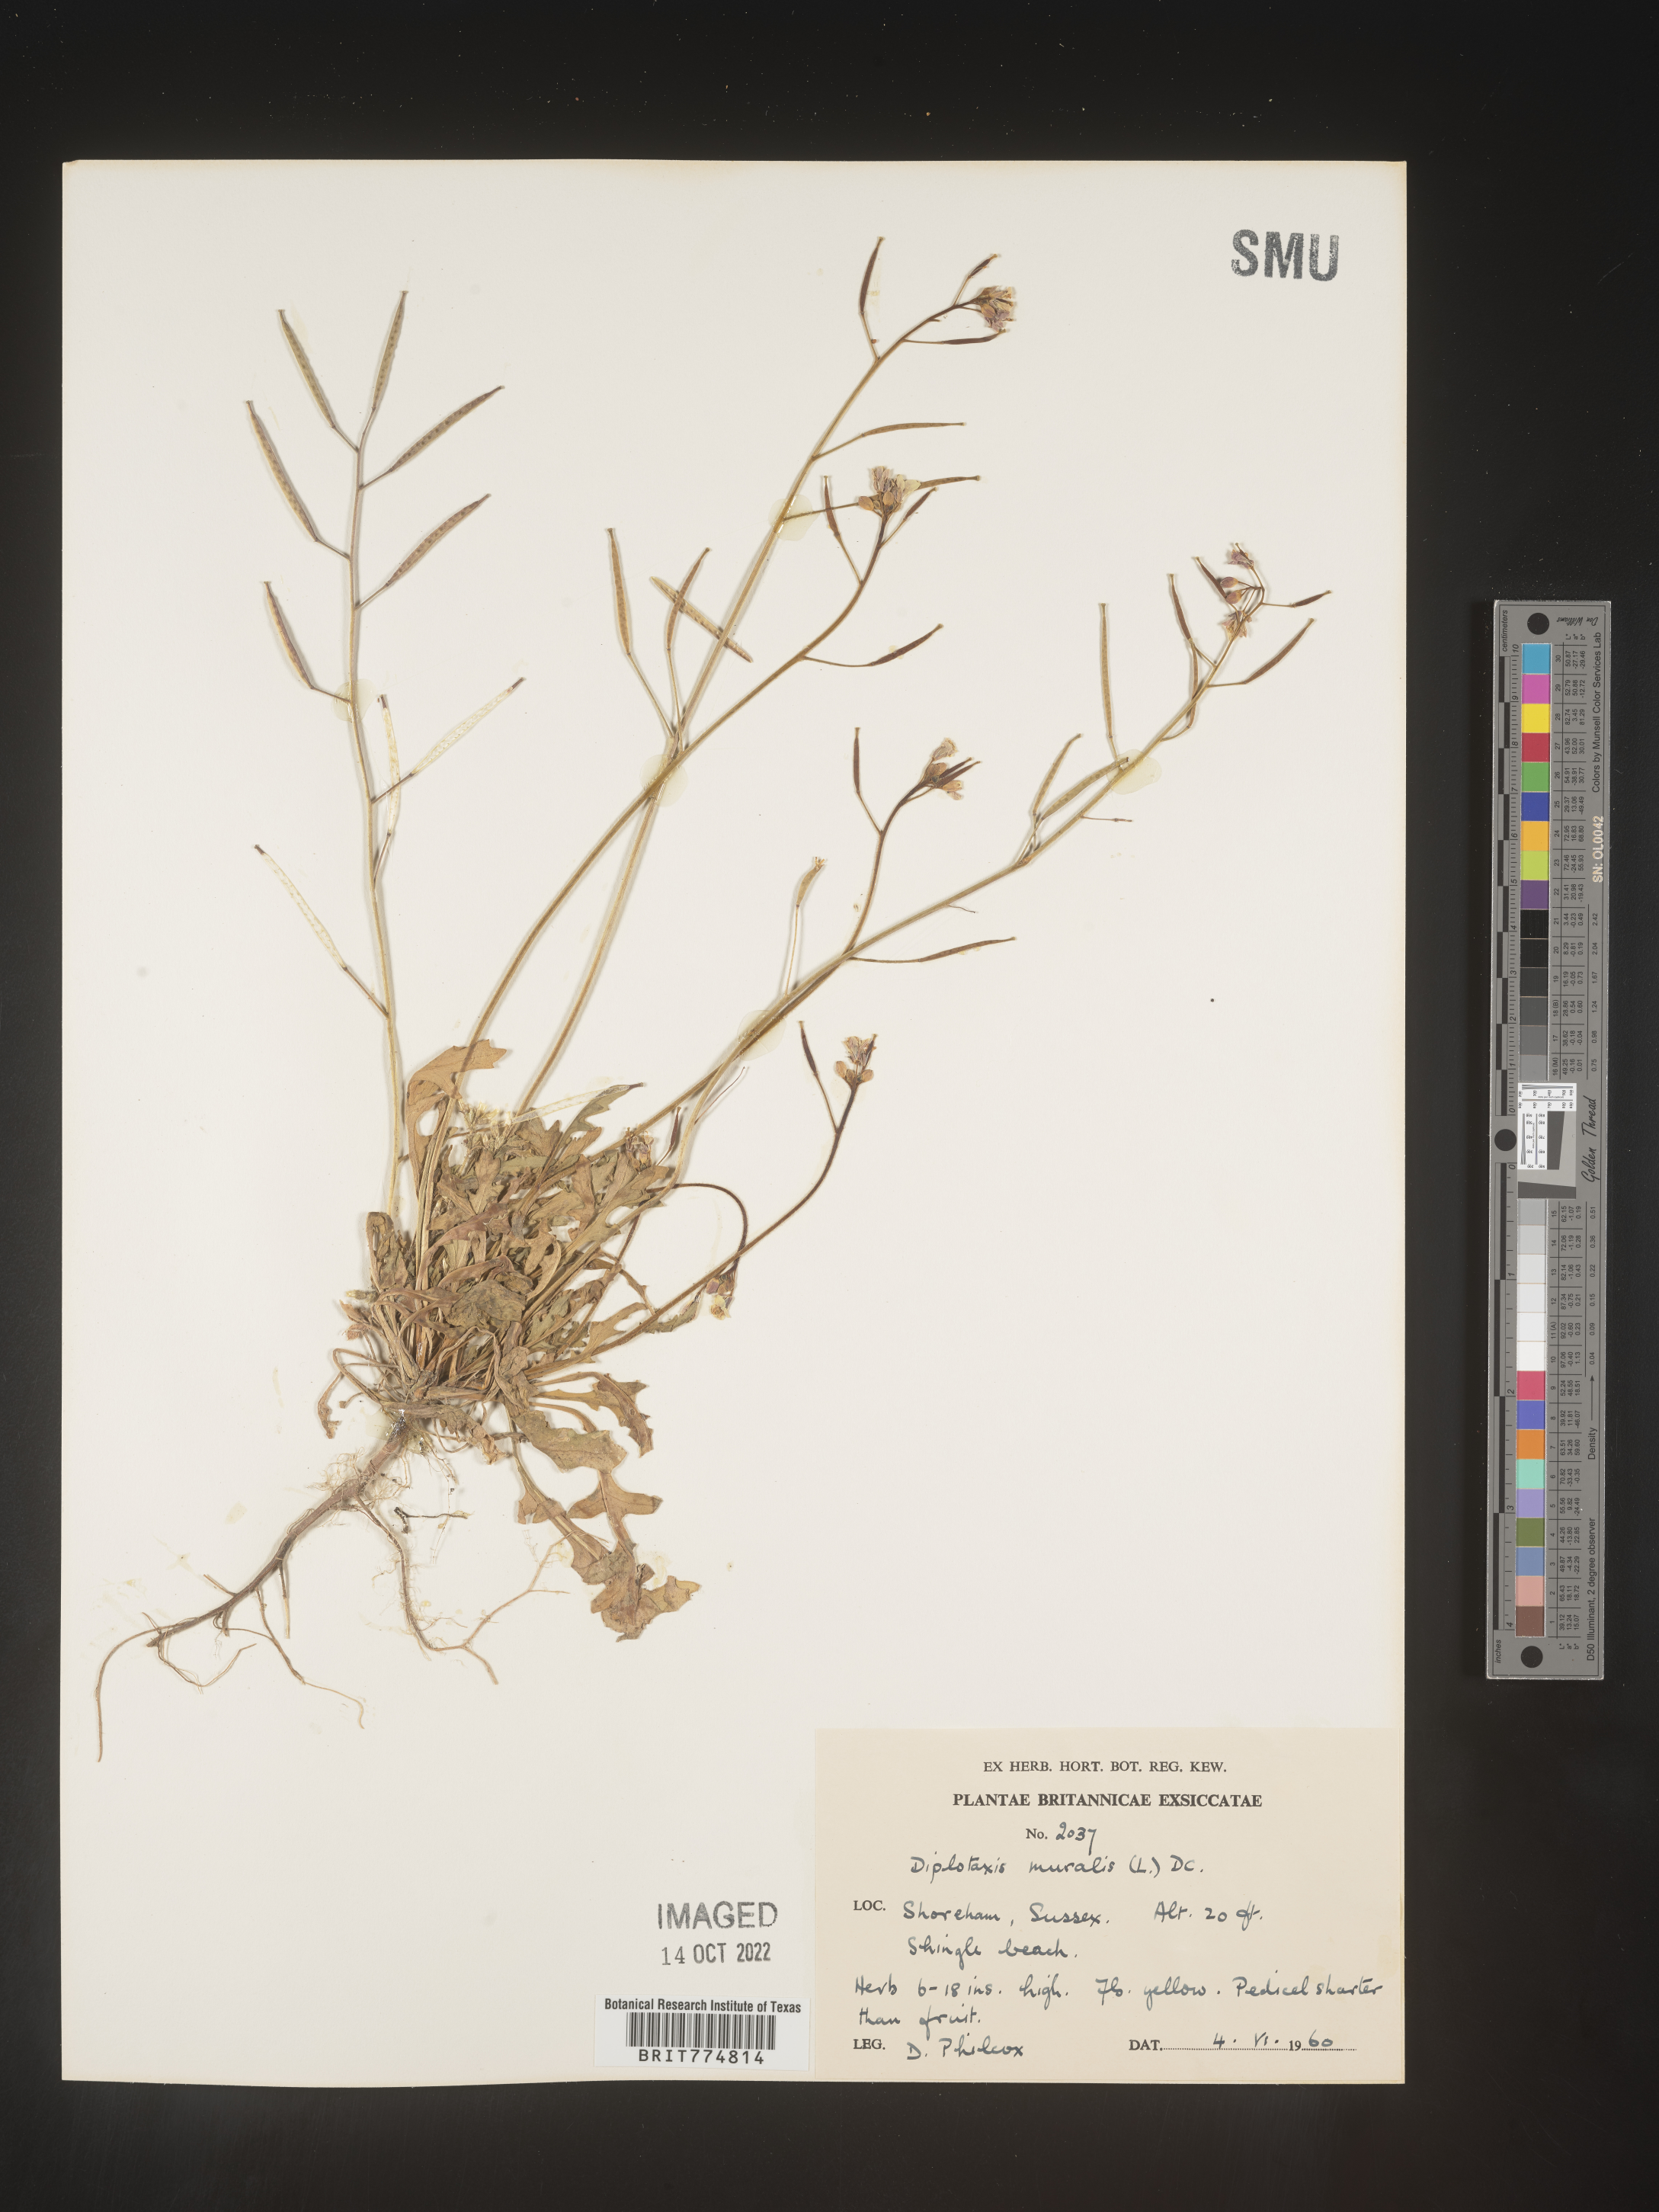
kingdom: Plantae
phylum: Tracheophyta
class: Magnoliopsida
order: Brassicales
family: Brassicaceae
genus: Diplotaxis
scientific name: Diplotaxis
